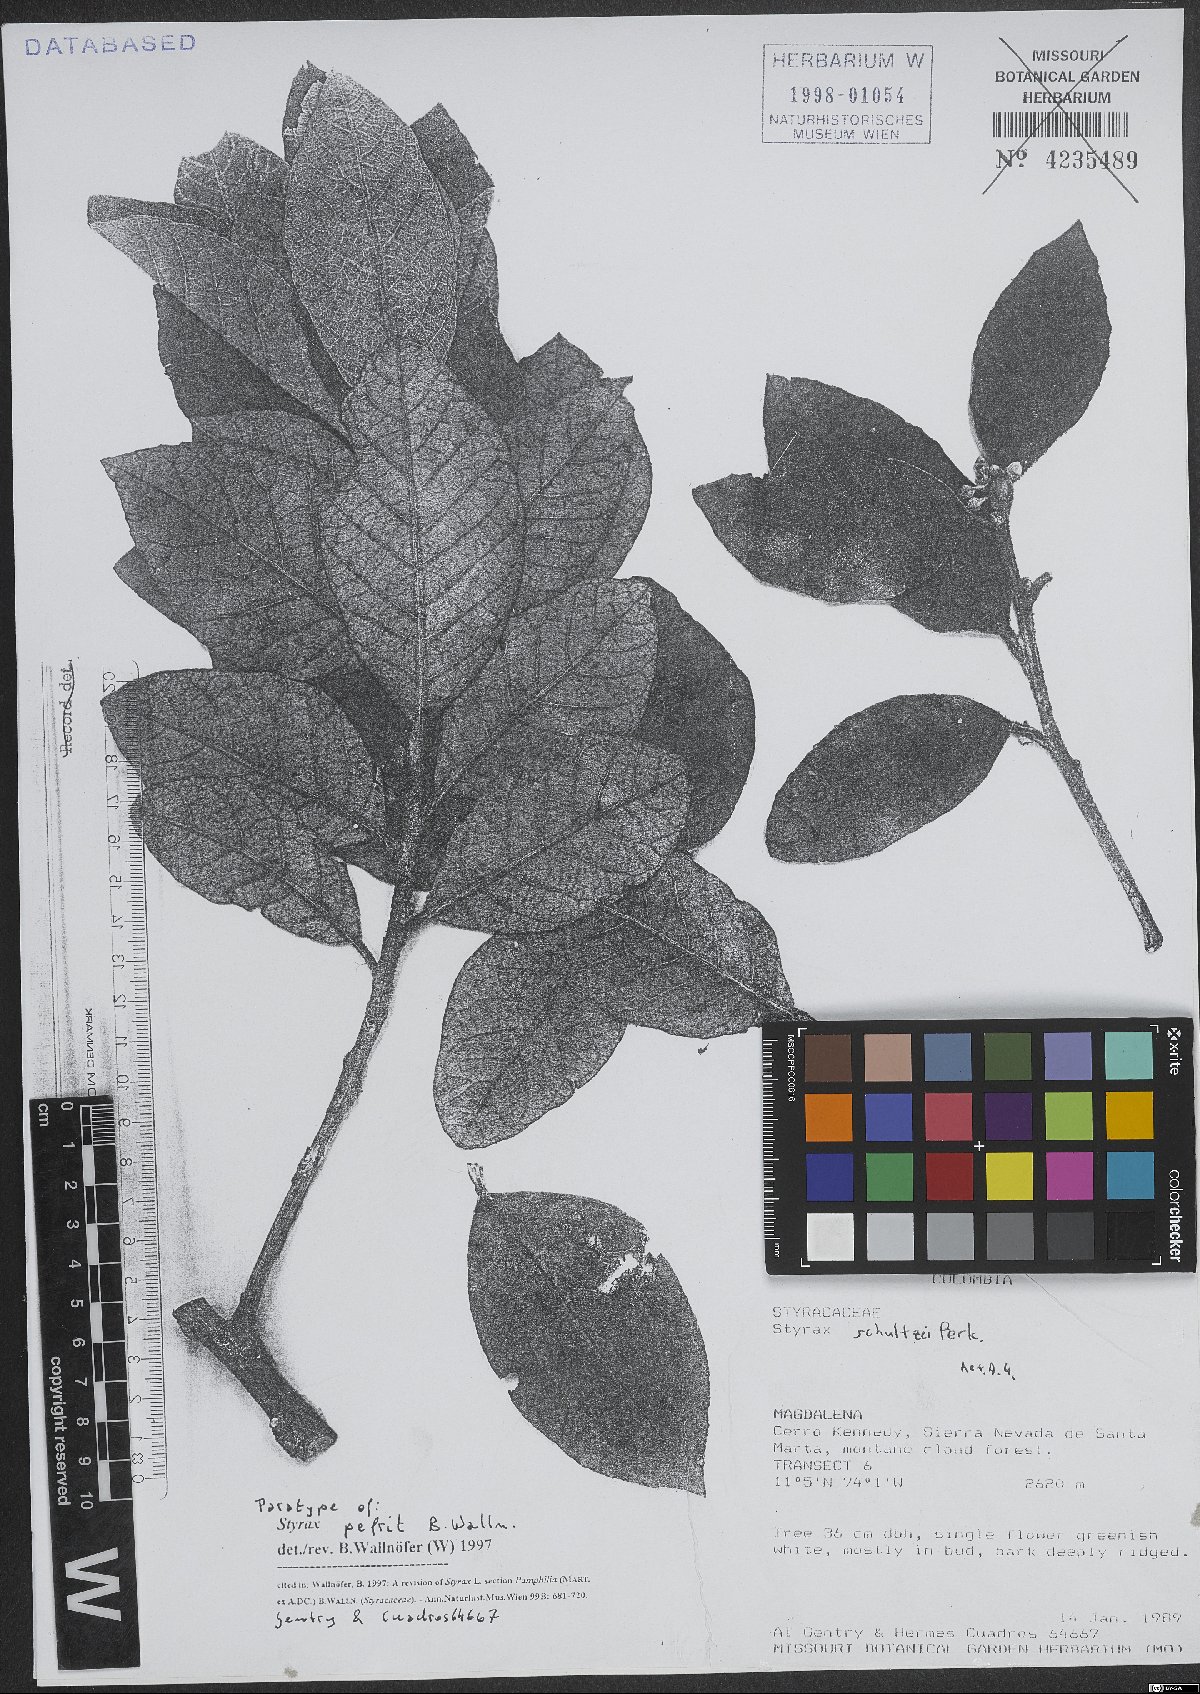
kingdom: Plantae
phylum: Tracheophyta
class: Magnoliopsida
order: Ericales
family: Styracaceae
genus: Styrax
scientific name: Styrax pefrit
